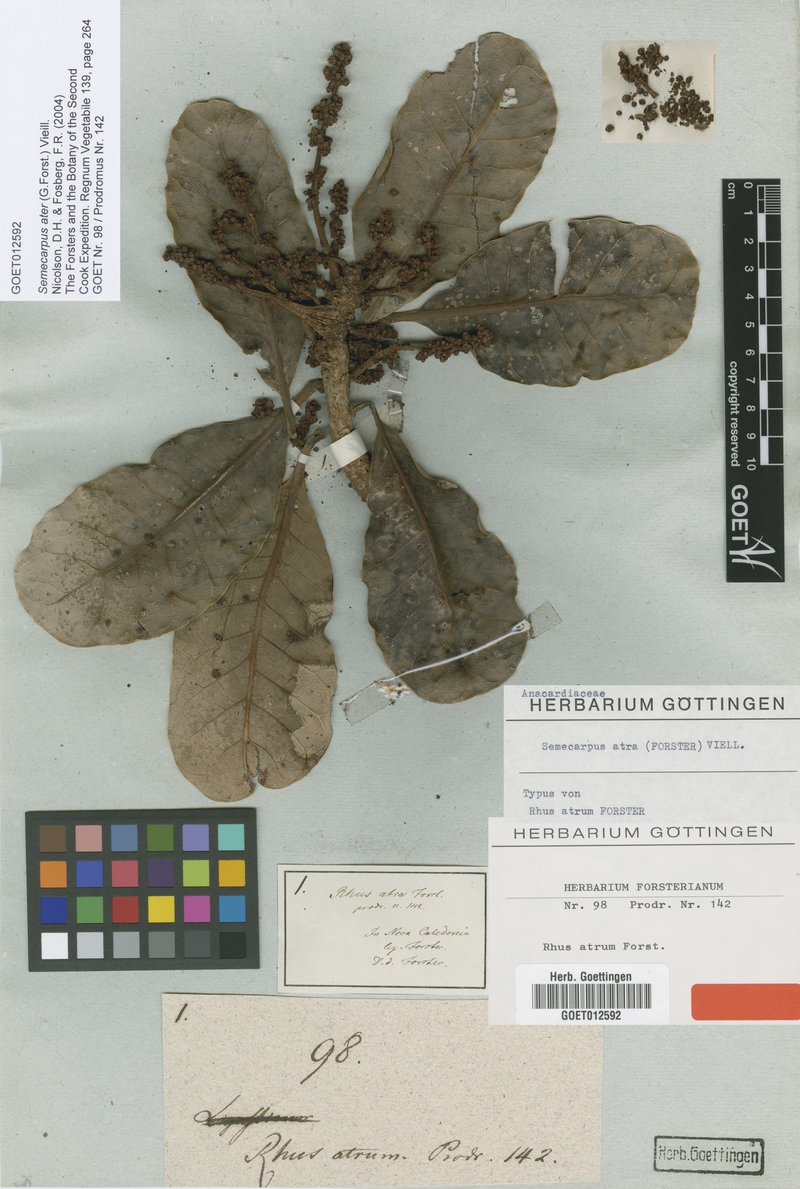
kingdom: Plantae
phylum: Tracheophyta
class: Magnoliopsida
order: Sapindales
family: Anacardiaceae
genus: Semecarpus
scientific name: Semecarpus atra
